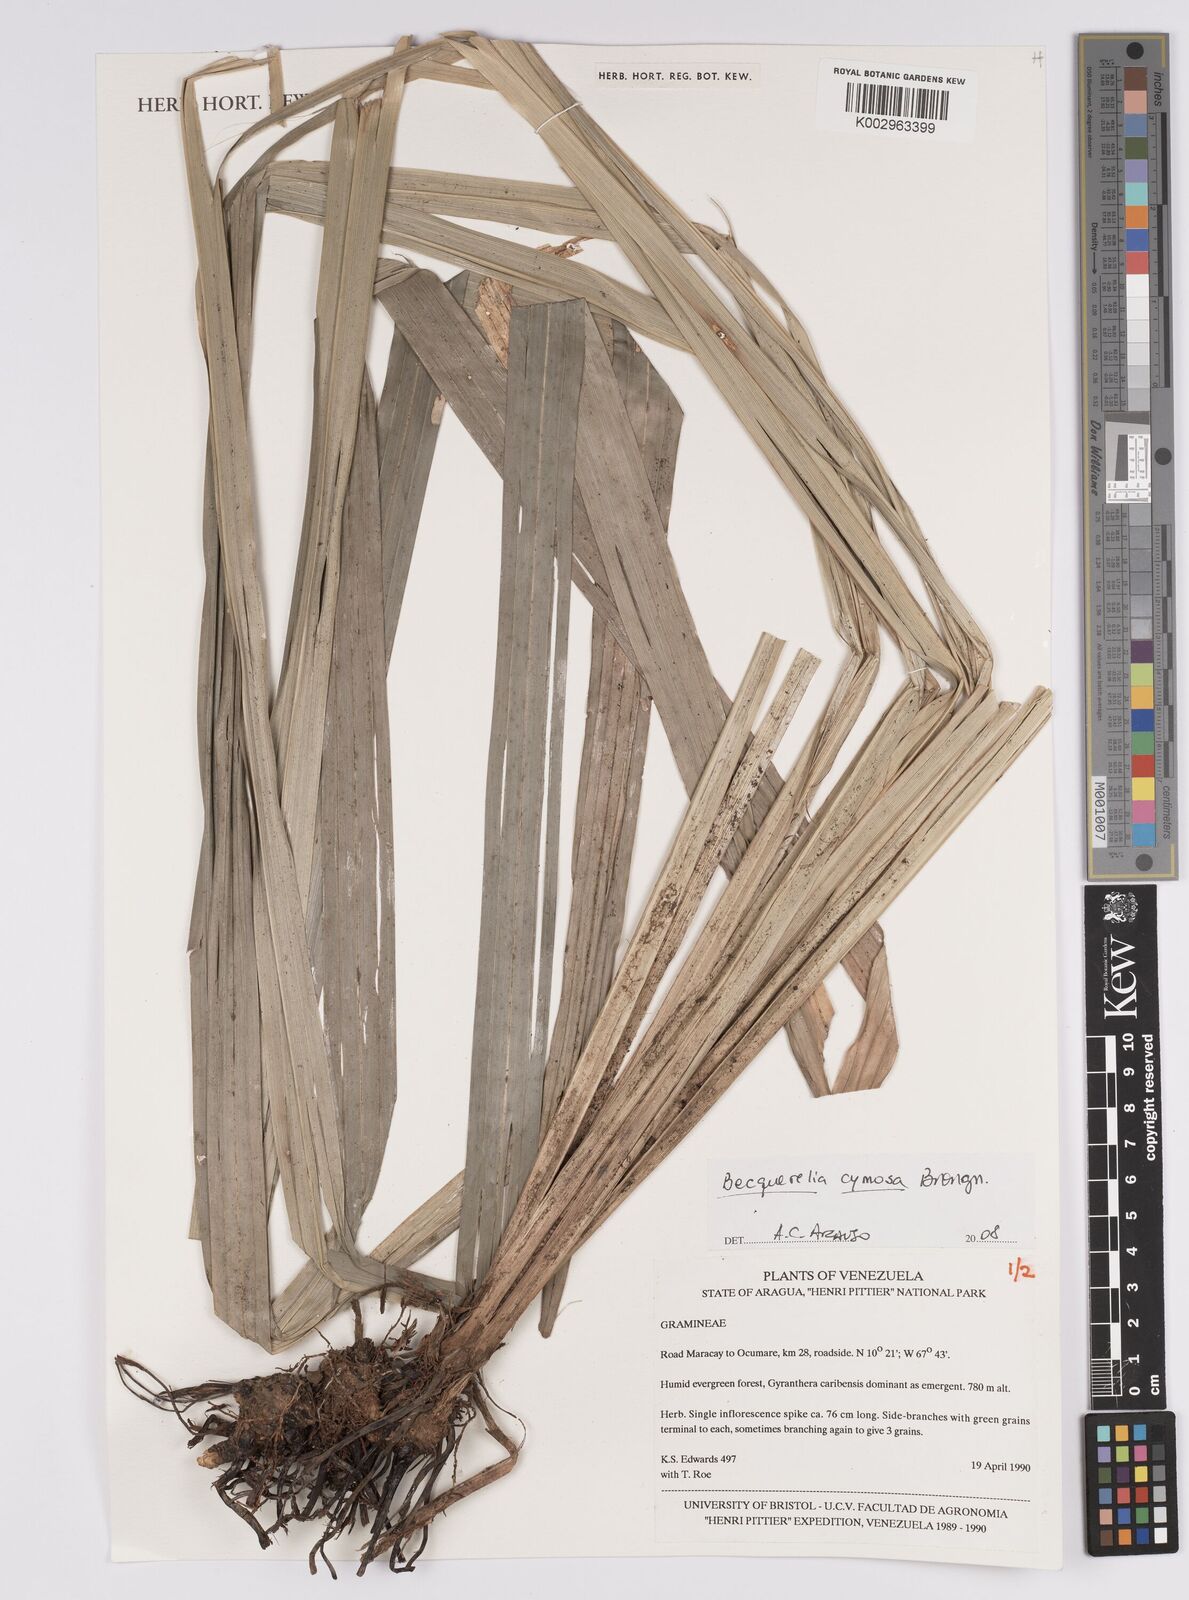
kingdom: Plantae
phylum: Tracheophyta
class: Liliopsida
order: Poales
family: Cyperaceae
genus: Becquerelia
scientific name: Becquerelia cymosa
